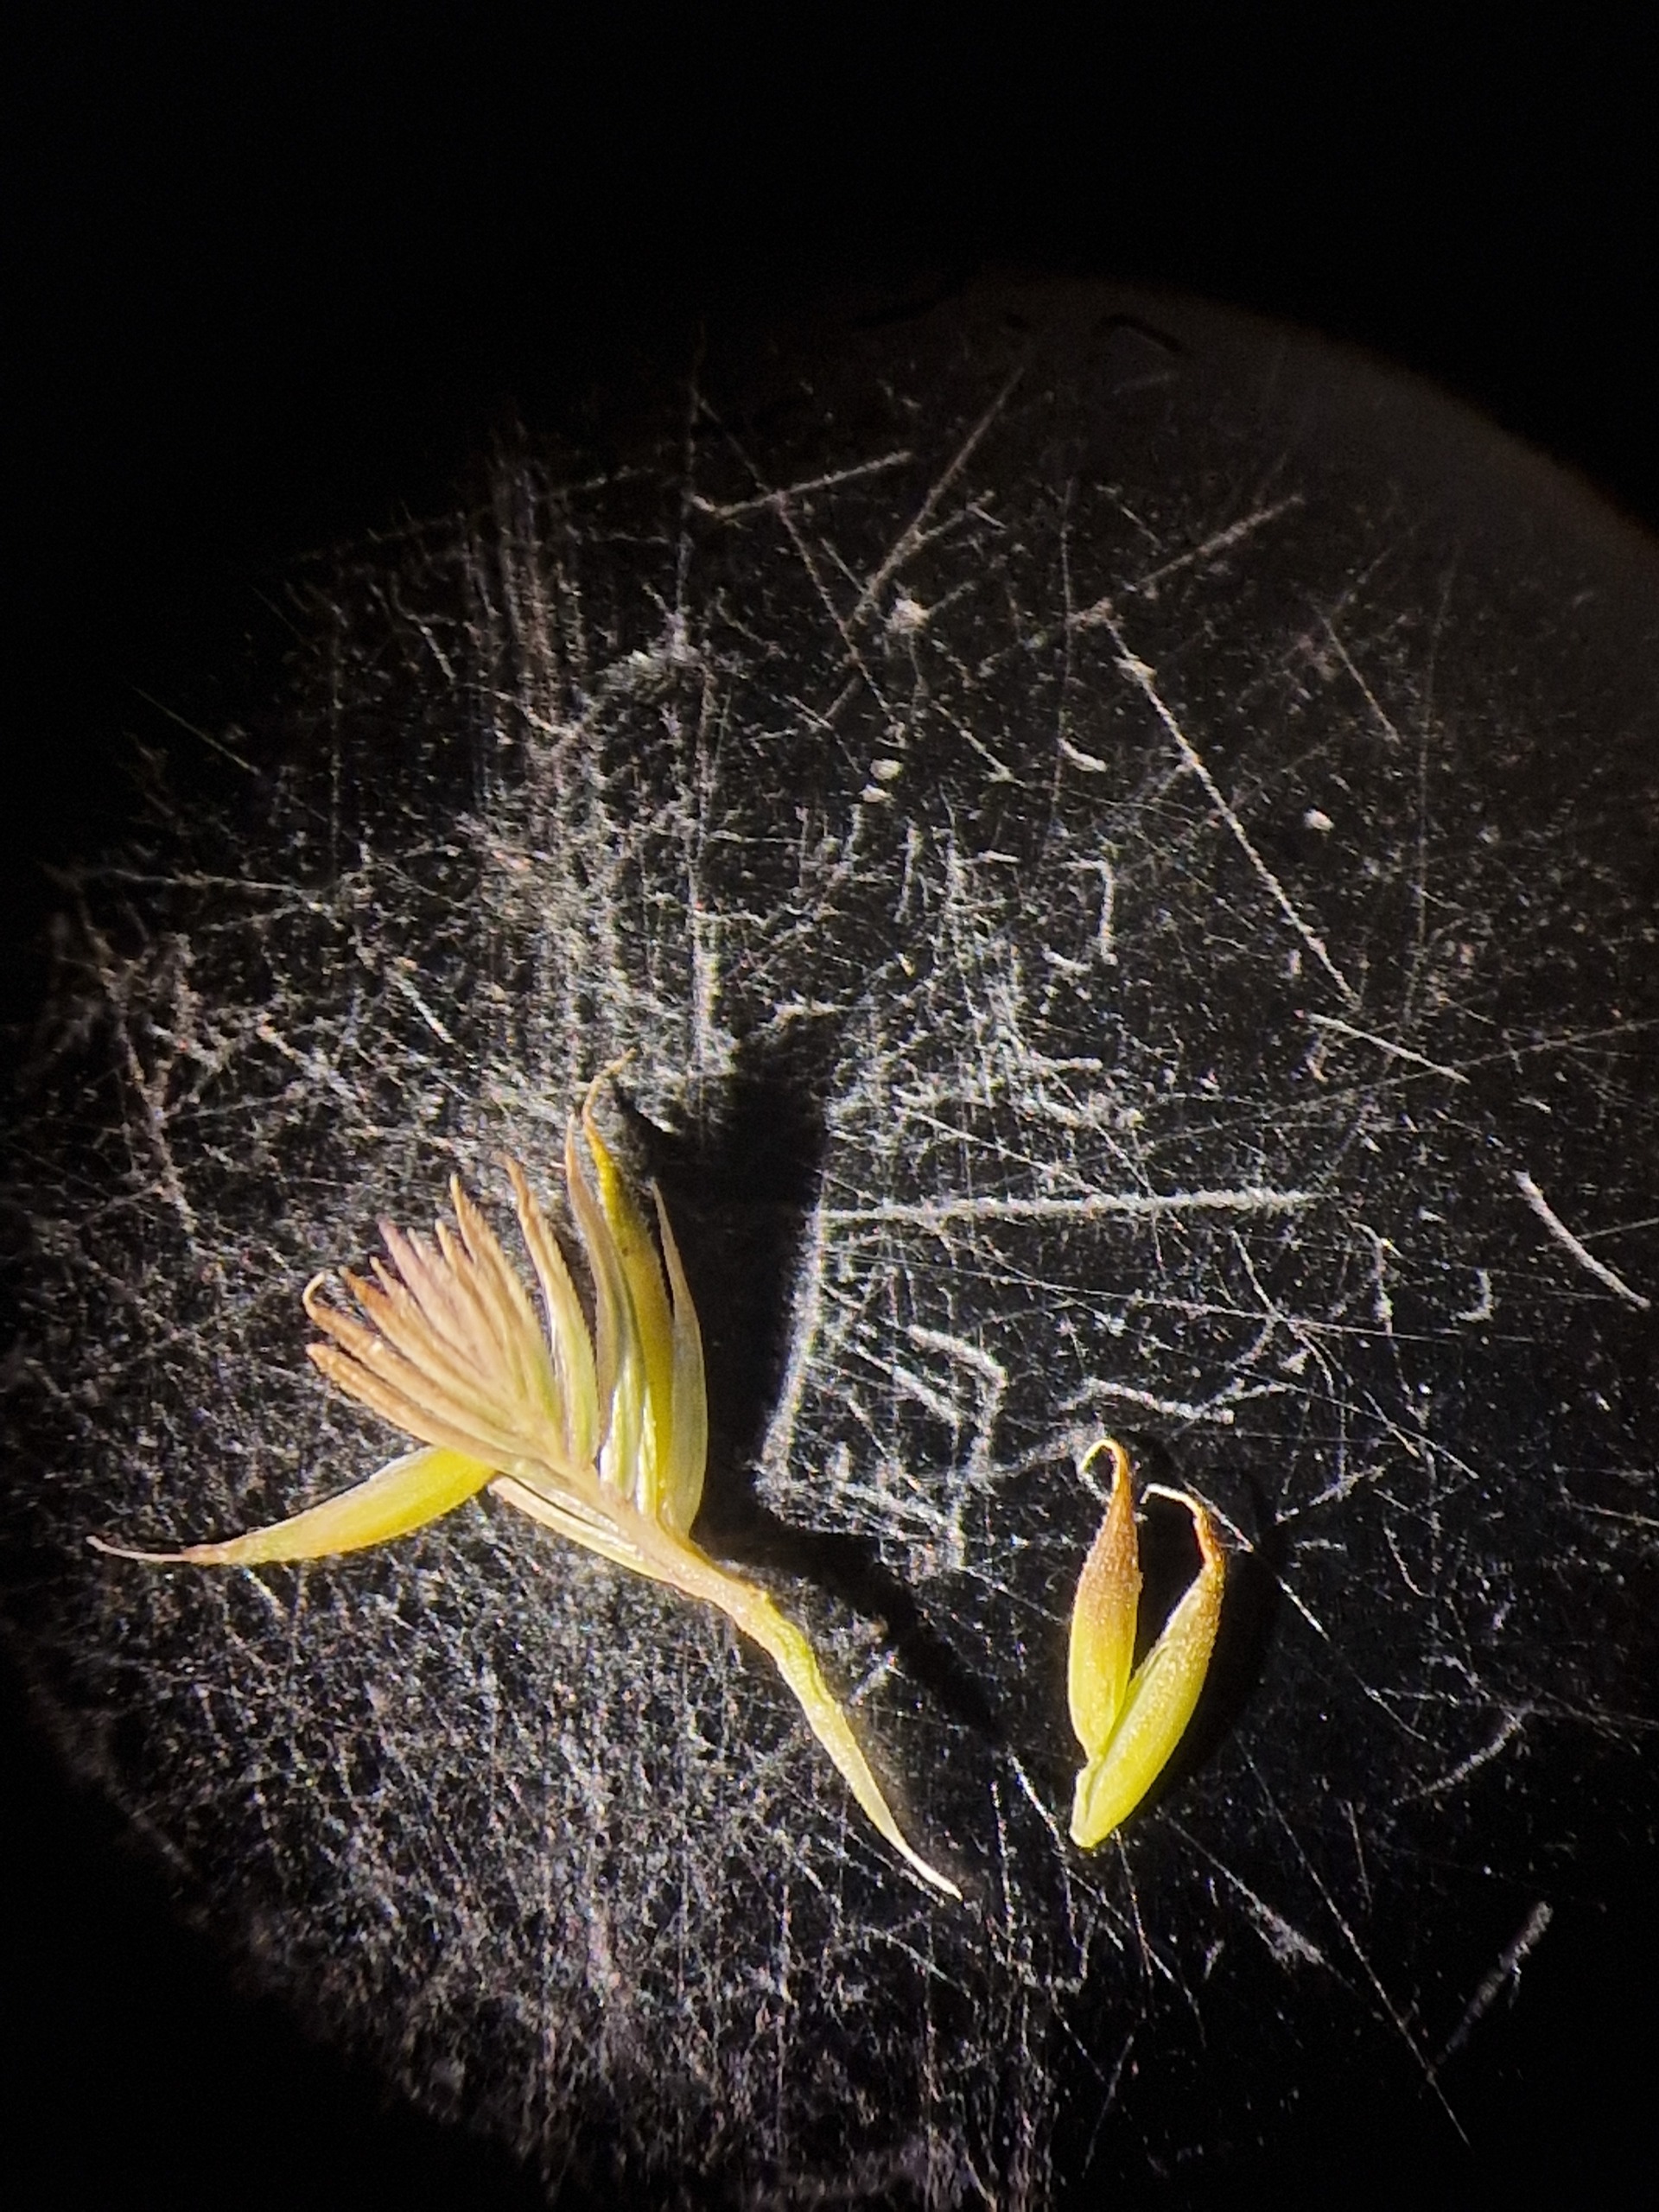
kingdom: Plantae
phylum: Tracheophyta
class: Liliopsida
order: Poales
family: Poaceae
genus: Cynosurus
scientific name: Cynosurus cristatus
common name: Kamgræs
